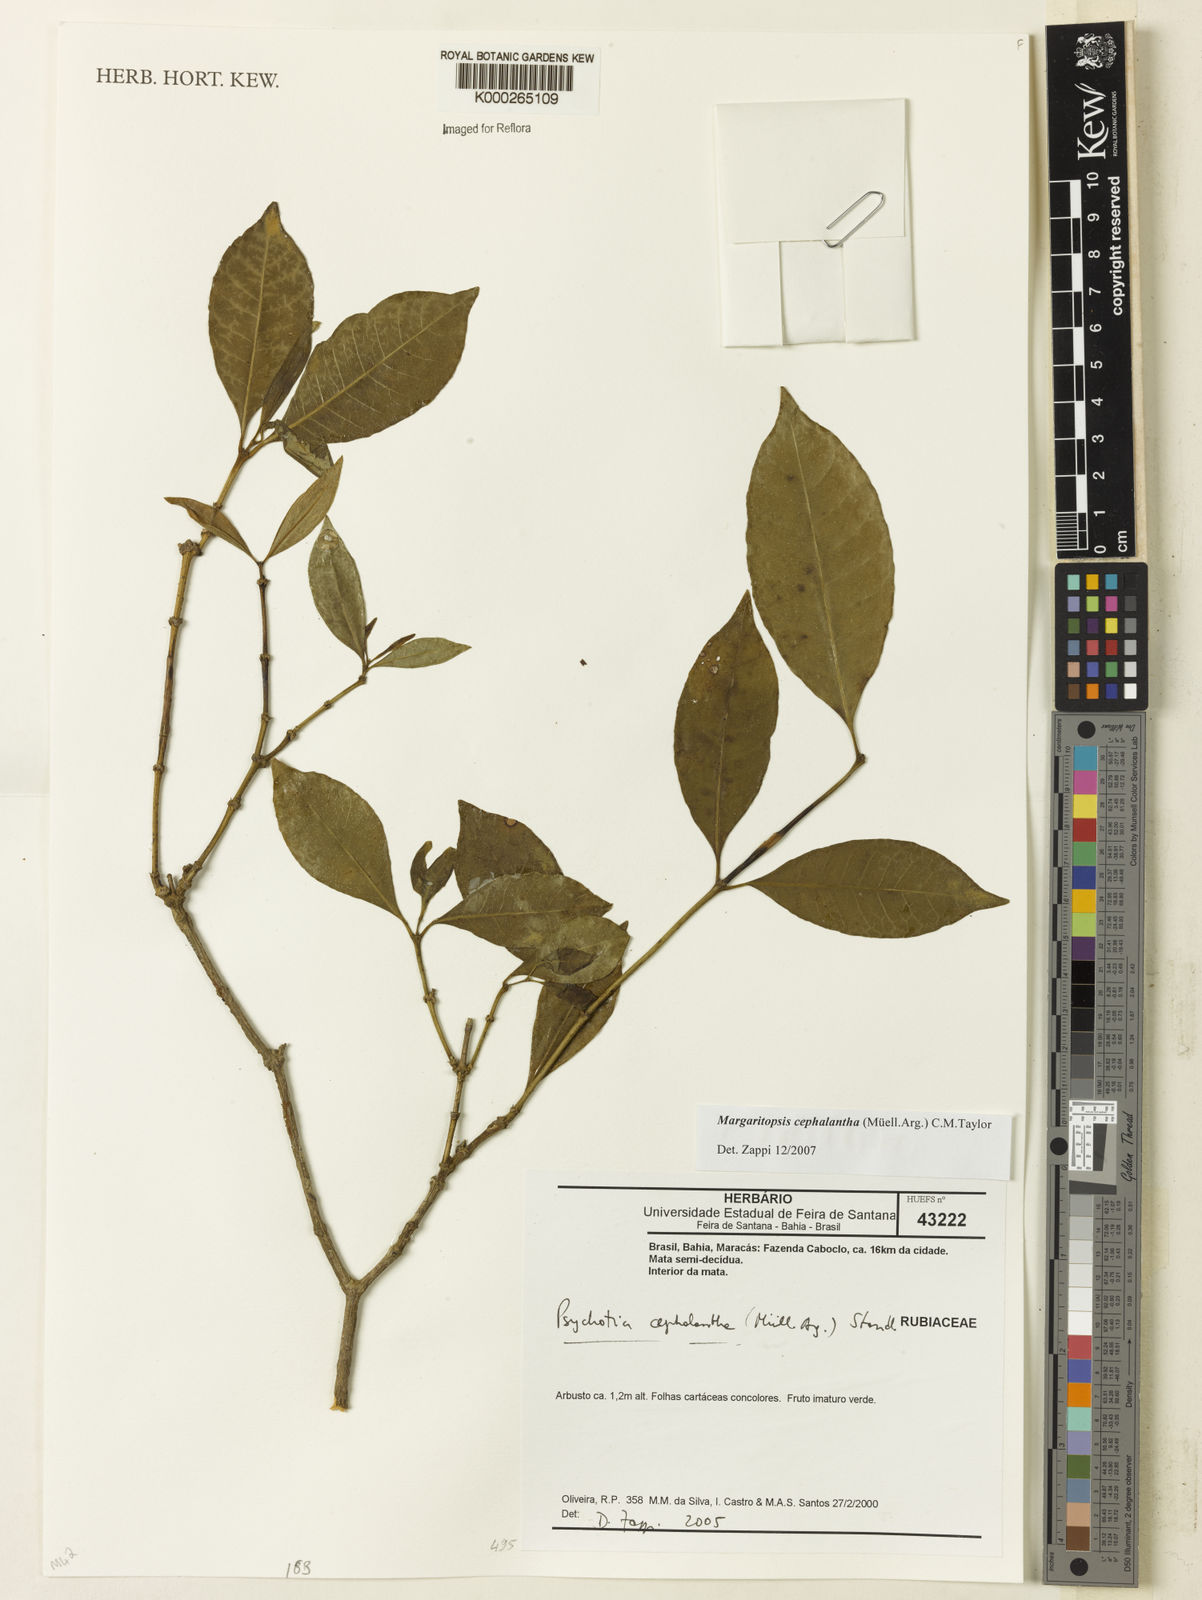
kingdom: Plantae
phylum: Tracheophyta
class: Magnoliopsida
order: Gentianales
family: Rubiaceae
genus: Eumachia
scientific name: Eumachia cephalantha
